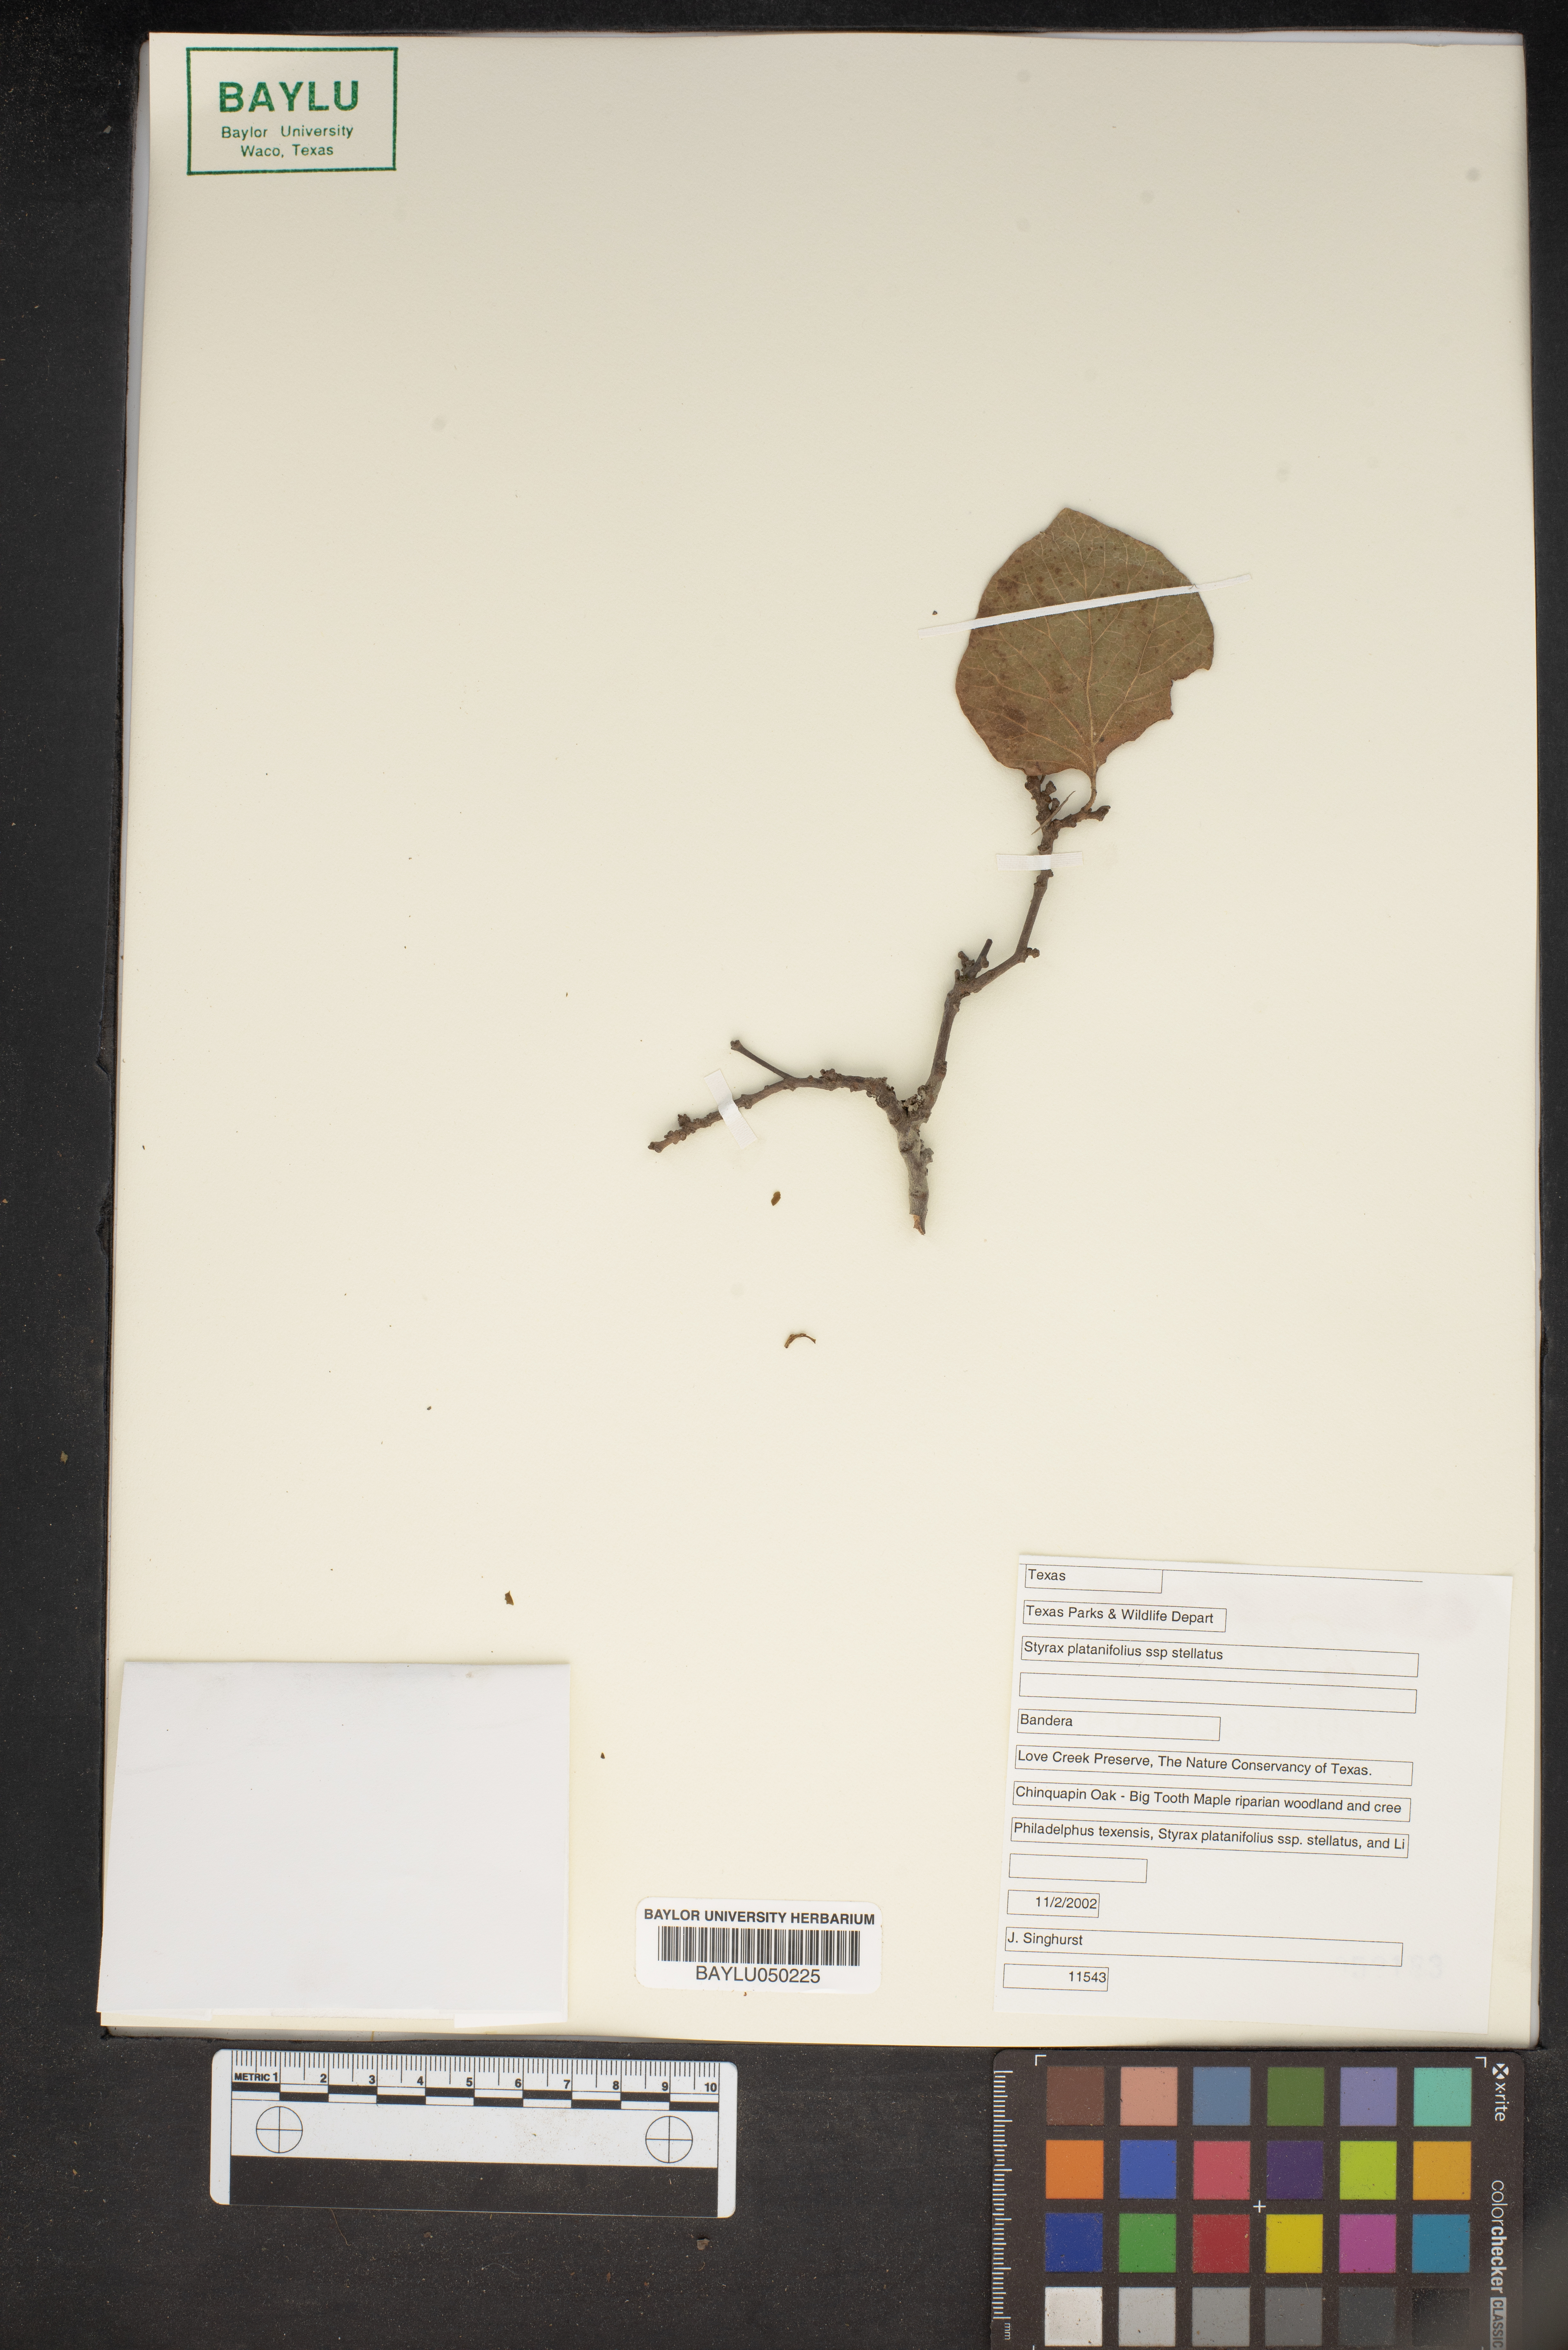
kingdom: Plantae
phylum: Tracheophyta
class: Magnoliopsida
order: Ericales
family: Styracaceae
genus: Styrax
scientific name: Styrax platanifolius
